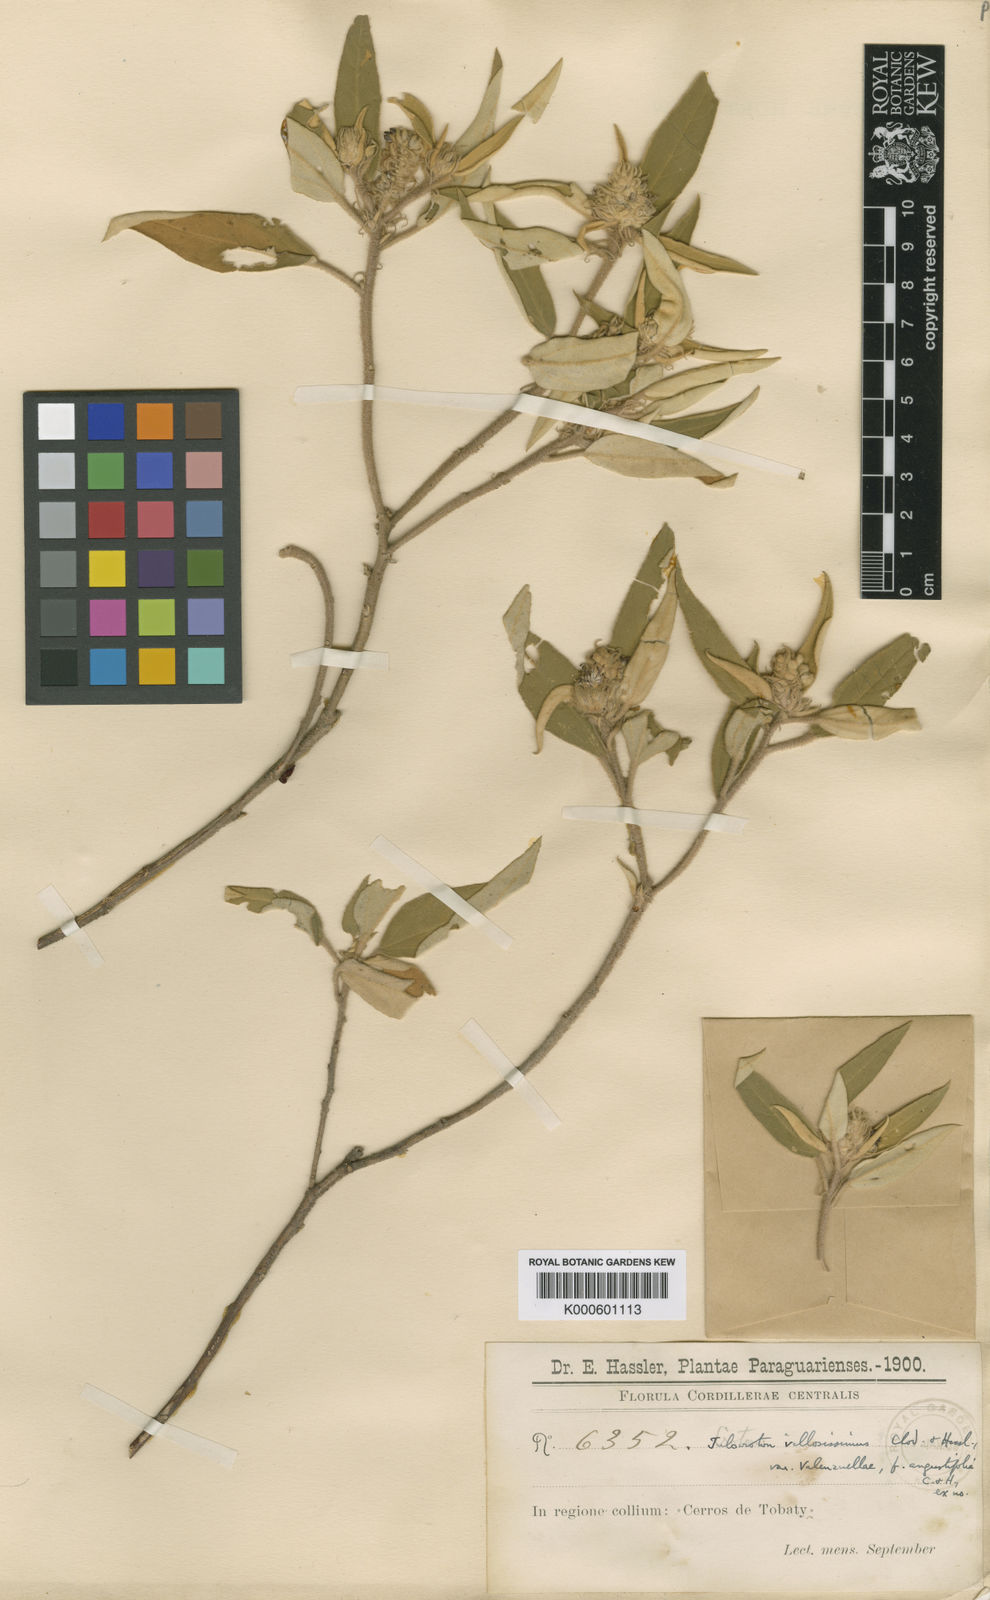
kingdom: Plantae
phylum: Tracheophyta
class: Magnoliopsida
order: Malpighiales
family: Euphorbiaceae
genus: Croton
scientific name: Croton villosissimus
